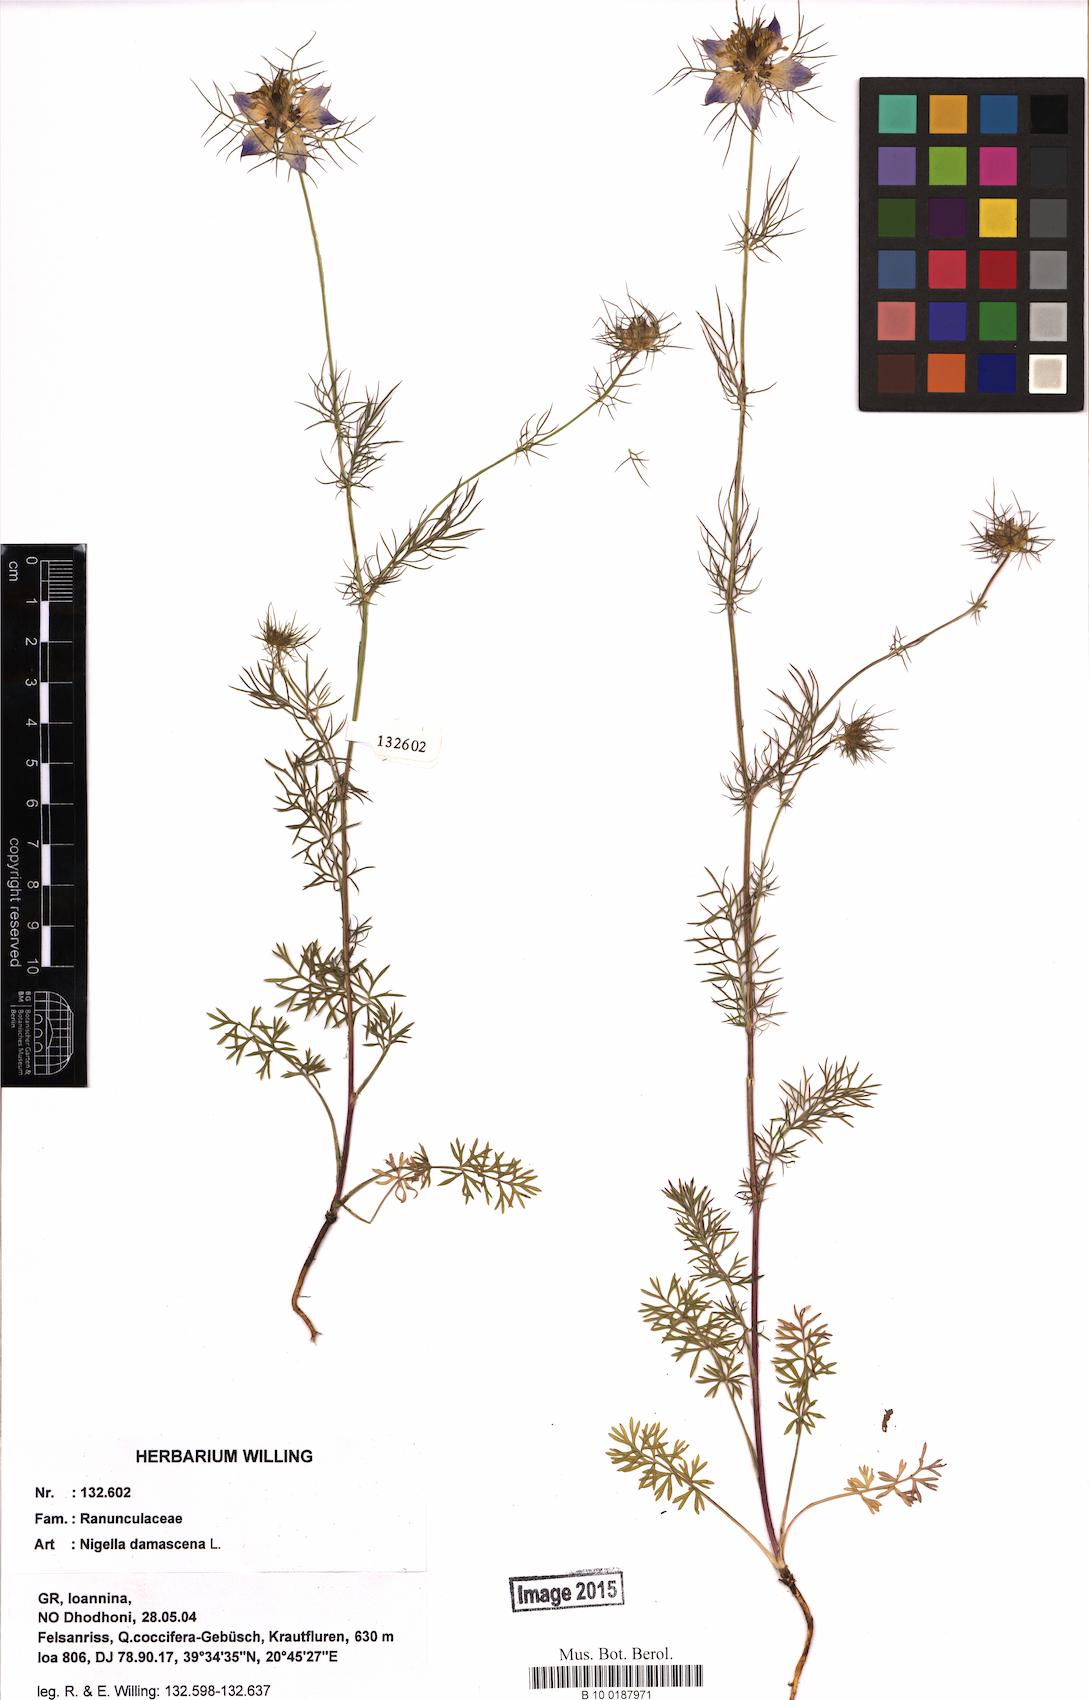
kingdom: Plantae
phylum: Tracheophyta
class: Magnoliopsida
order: Ranunculales
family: Ranunculaceae
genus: Nigella
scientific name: Nigella damascena
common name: Love-in-a-mist
